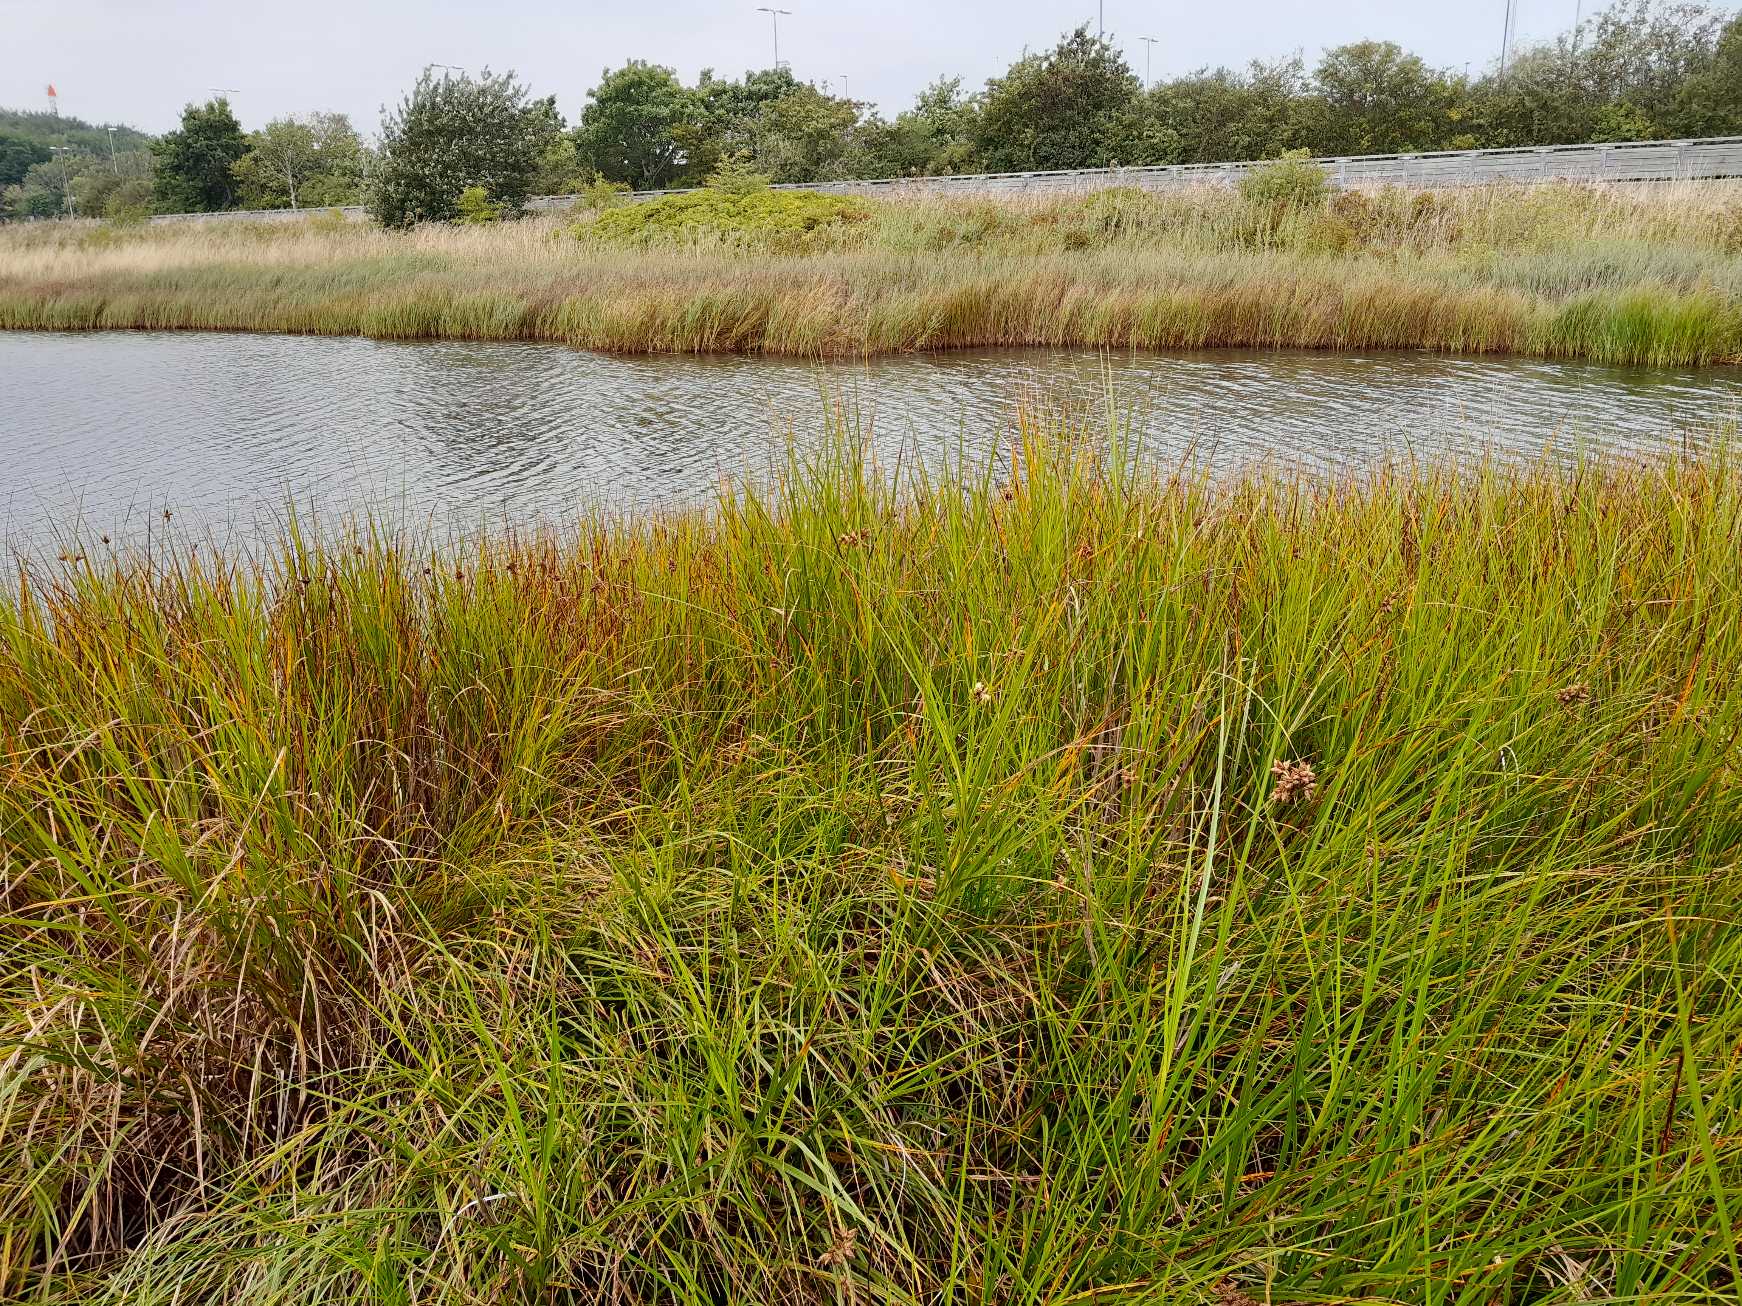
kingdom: Plantae
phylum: Tracheophyta
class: Liliopsida
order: Poales
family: Cyperaceae
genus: Bolboschoenus
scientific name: Bolboschoenus maritimus
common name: Strand-kogleaks
